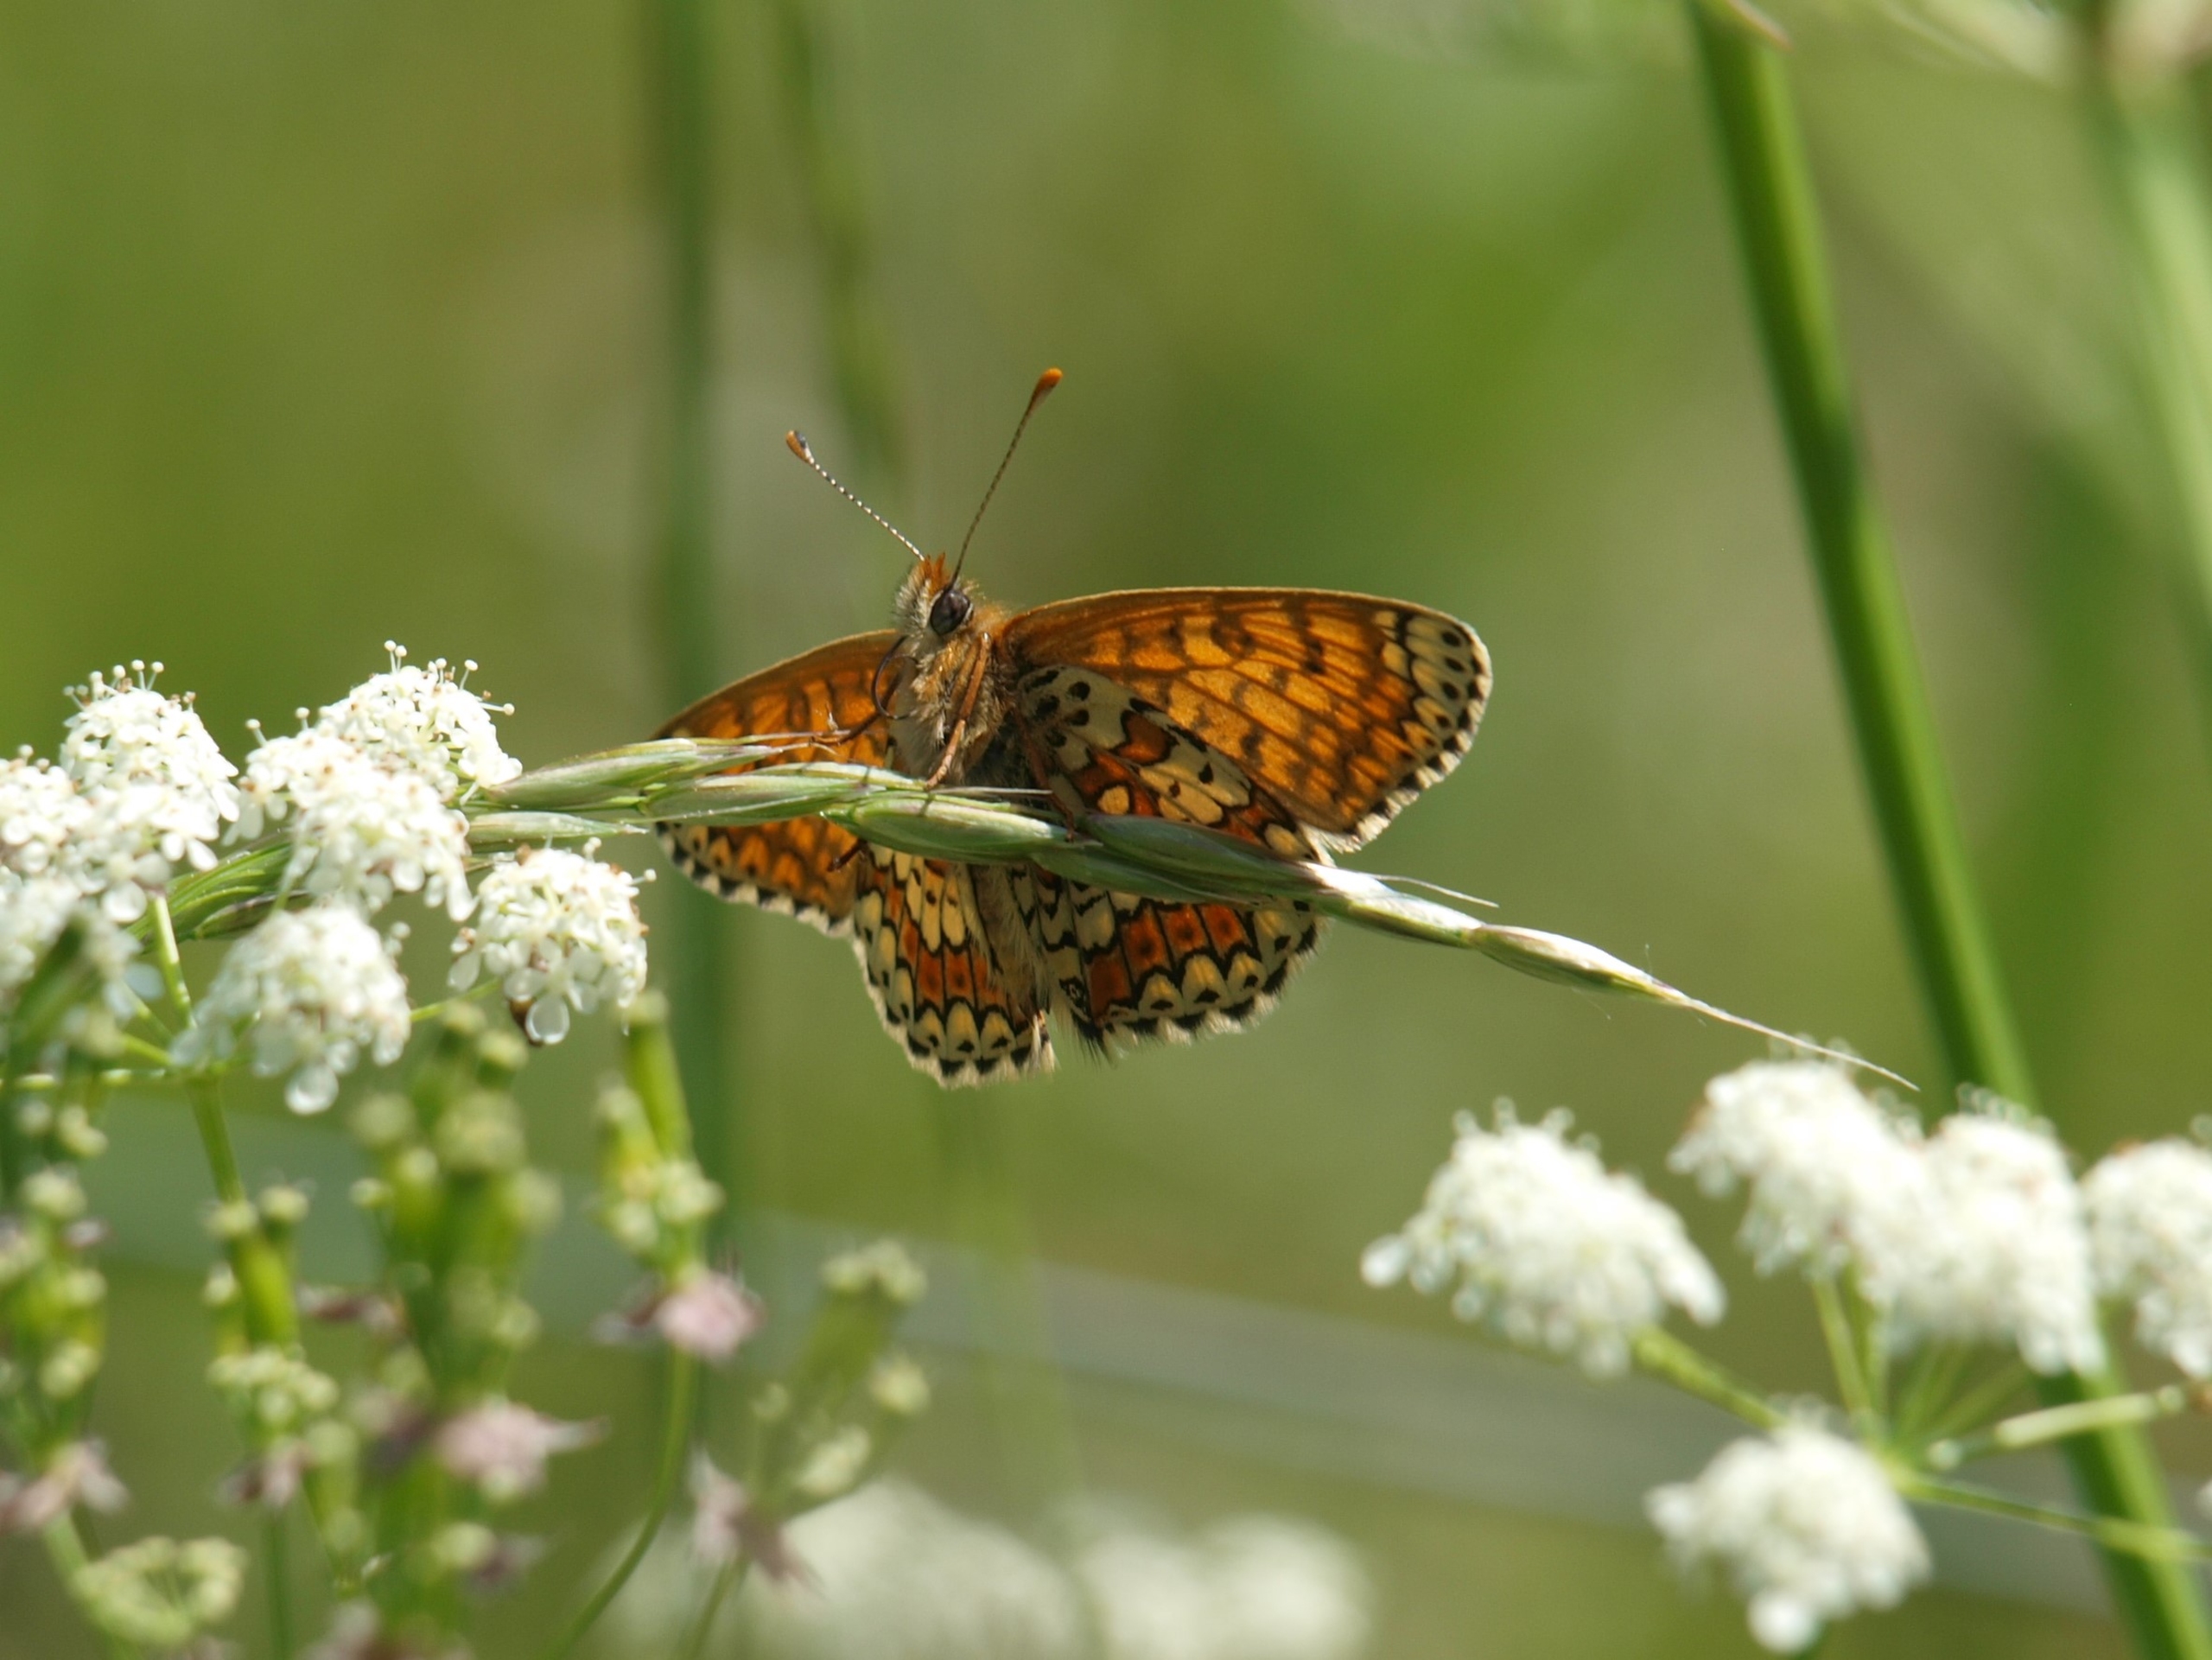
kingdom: Animalia
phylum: Arthropoda
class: Insecta
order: Lepidoptera
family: Nymphalidae
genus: Melitaea
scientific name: Melitaea cinxia
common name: Okkergul pletvinge
